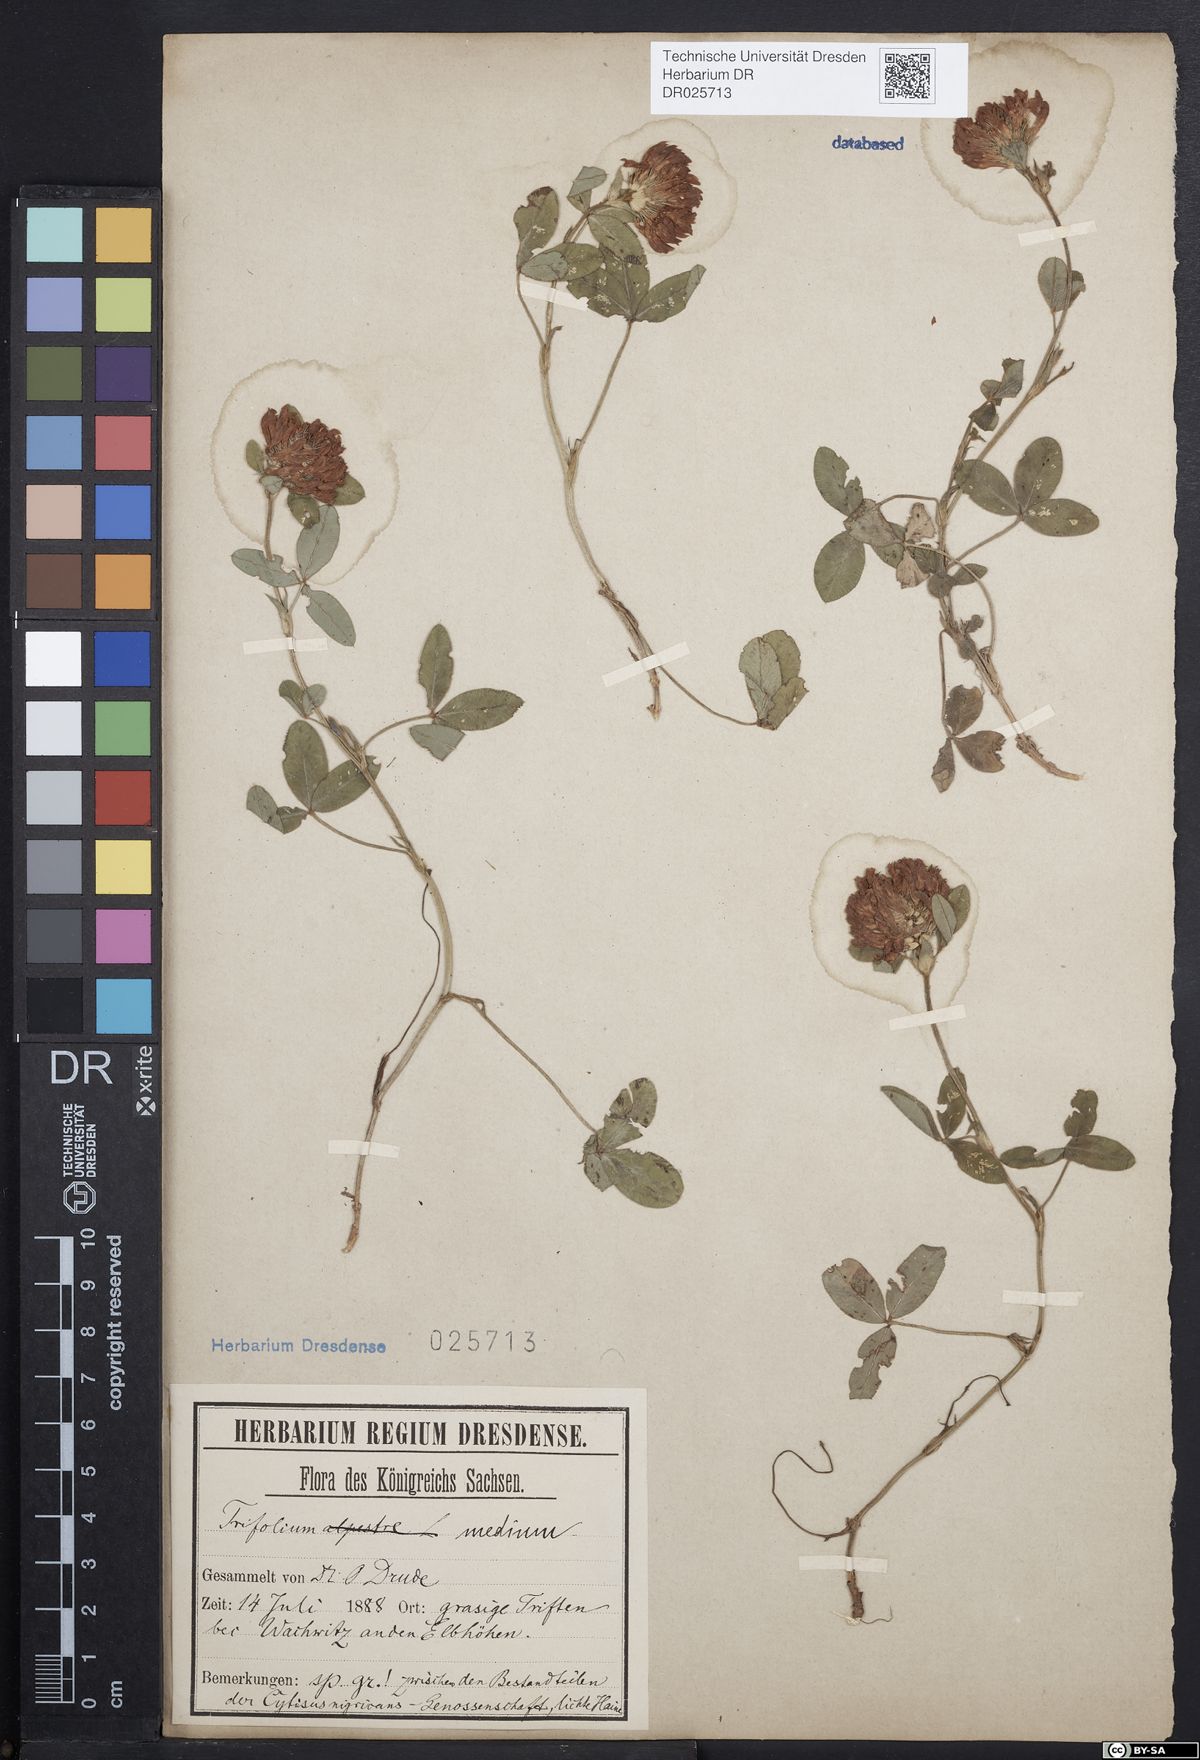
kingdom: Plantae
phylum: Tracheophyta
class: Magnoliopsida
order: Fabales
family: Fabaceae
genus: Trifolium
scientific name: Trifolium medium
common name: Zigzag clover
